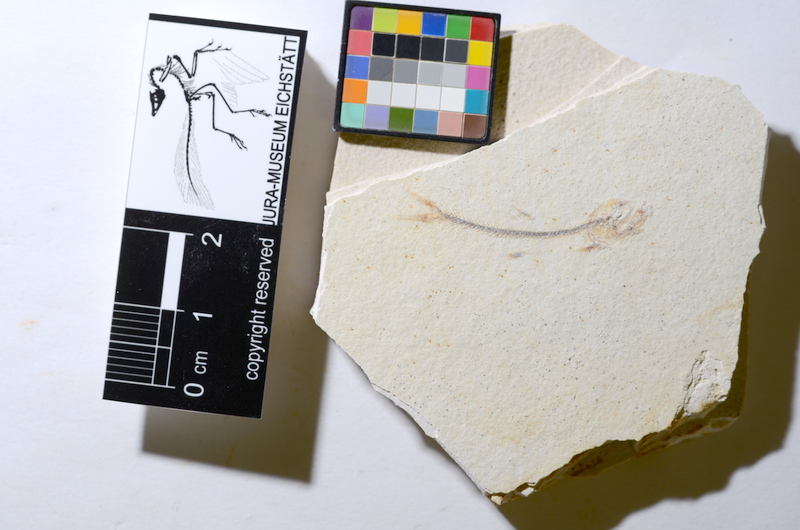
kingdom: Animalia
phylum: Chordata
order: Salmoniformes
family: Orthogonikleithridae
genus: Orthogonikleithrus
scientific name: Orthogonikleithrus hoelli
